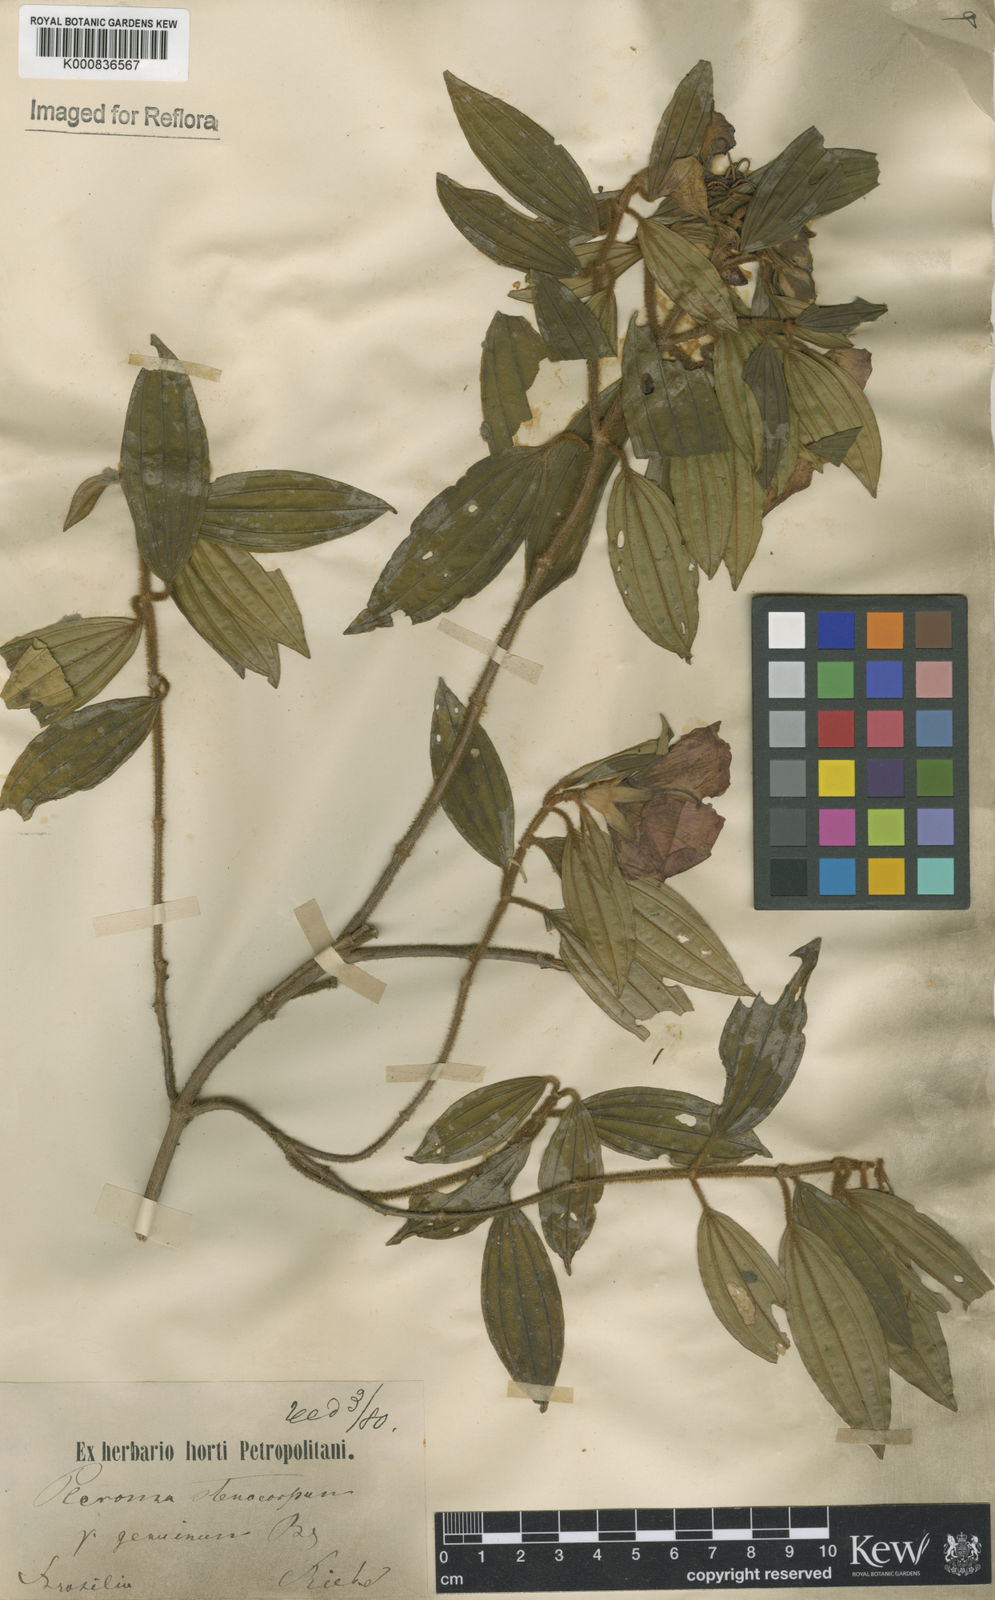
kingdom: Plantae
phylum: Tracheophyta
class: Magnoliopsida
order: Myrtales
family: Melastomataceae
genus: Pleroma
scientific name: Pleroma stenocarpum
